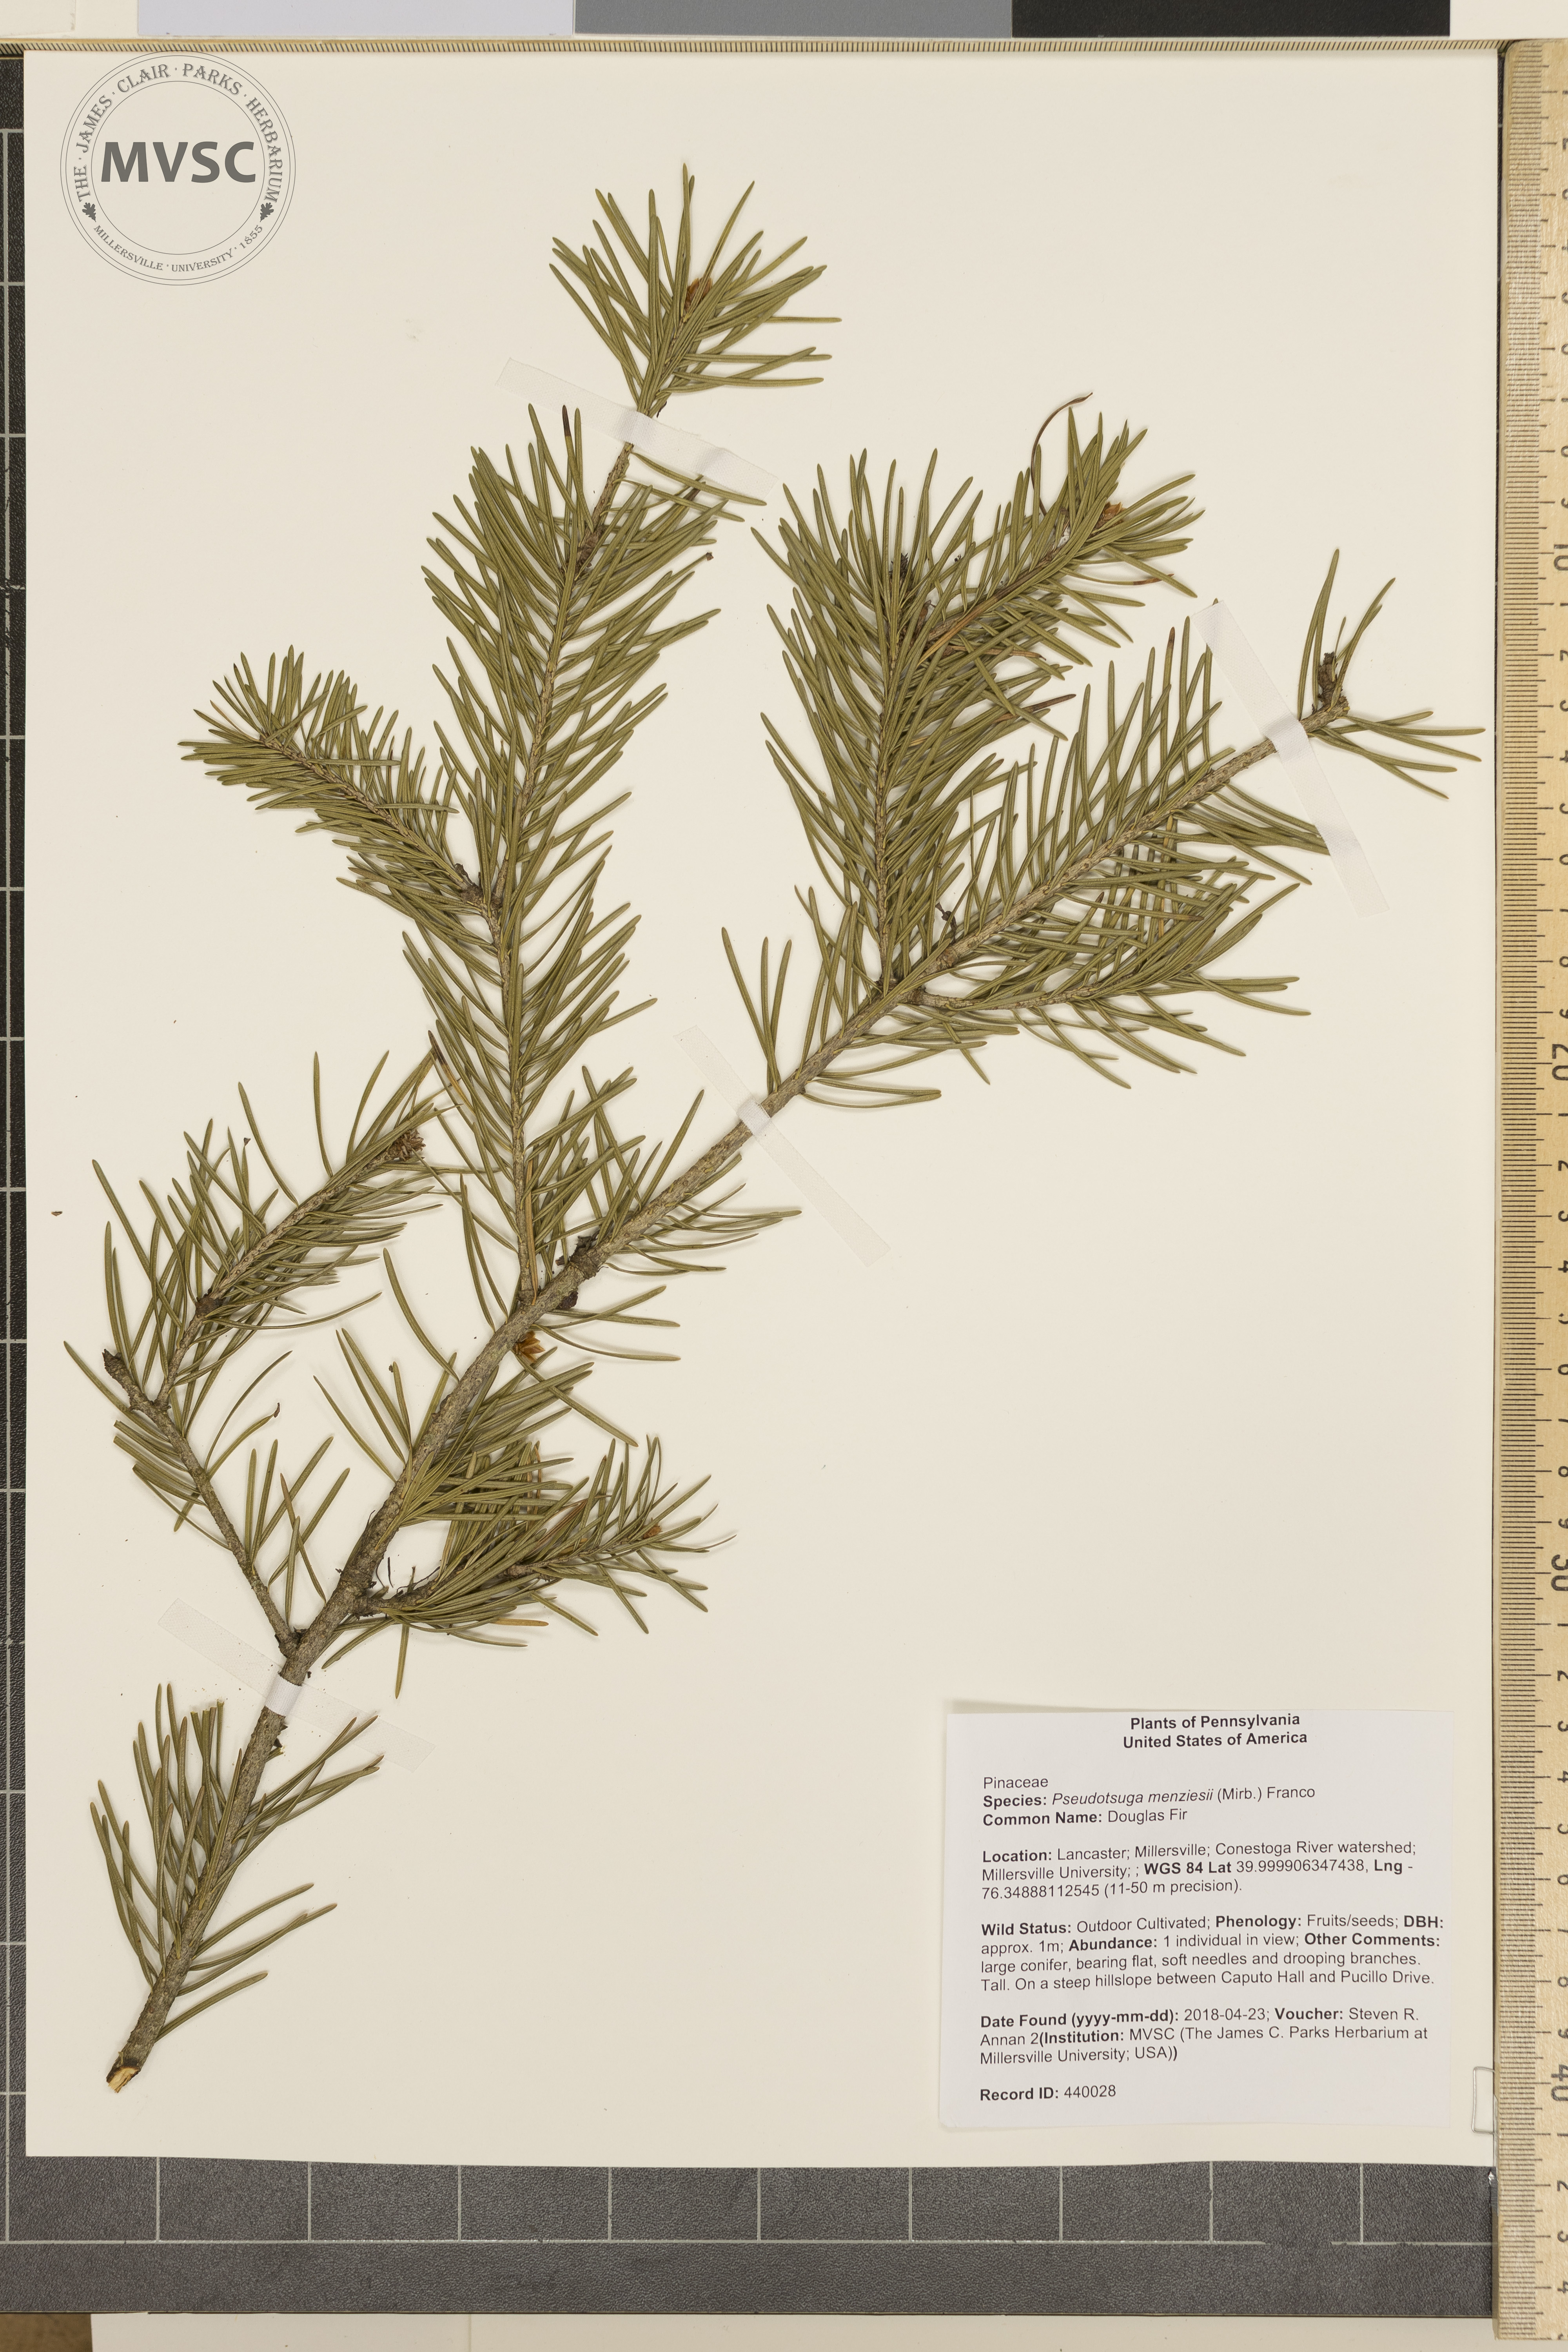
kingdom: Plantae
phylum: Tracheophyta
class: Pinopsida
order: Pinales
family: Pinaceae
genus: Pseudotsuga
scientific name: Pseudotsuga menziesii
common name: Douglas Fir
